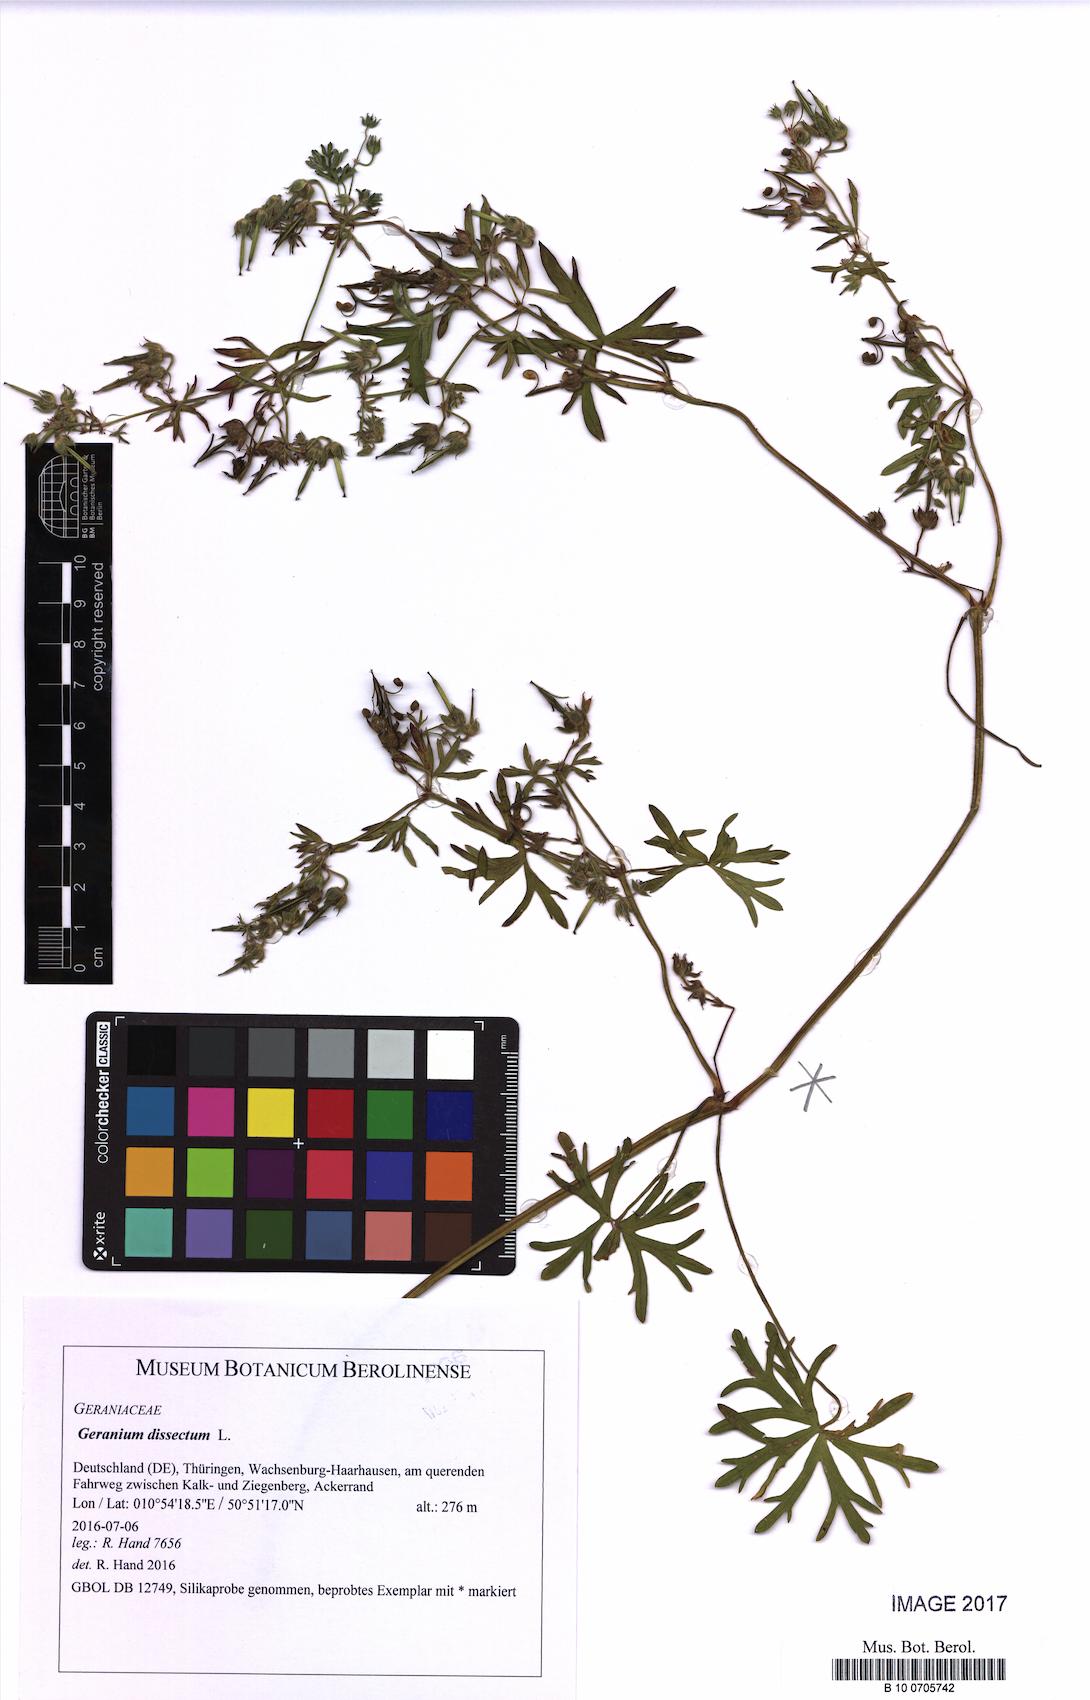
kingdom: Plantae
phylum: Tracheophyta
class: Magnoliopsida
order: Geraniales
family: Geraniaceae
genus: Geranium
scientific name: Geranium dissectum
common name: Cut-leaved crane's-bill
